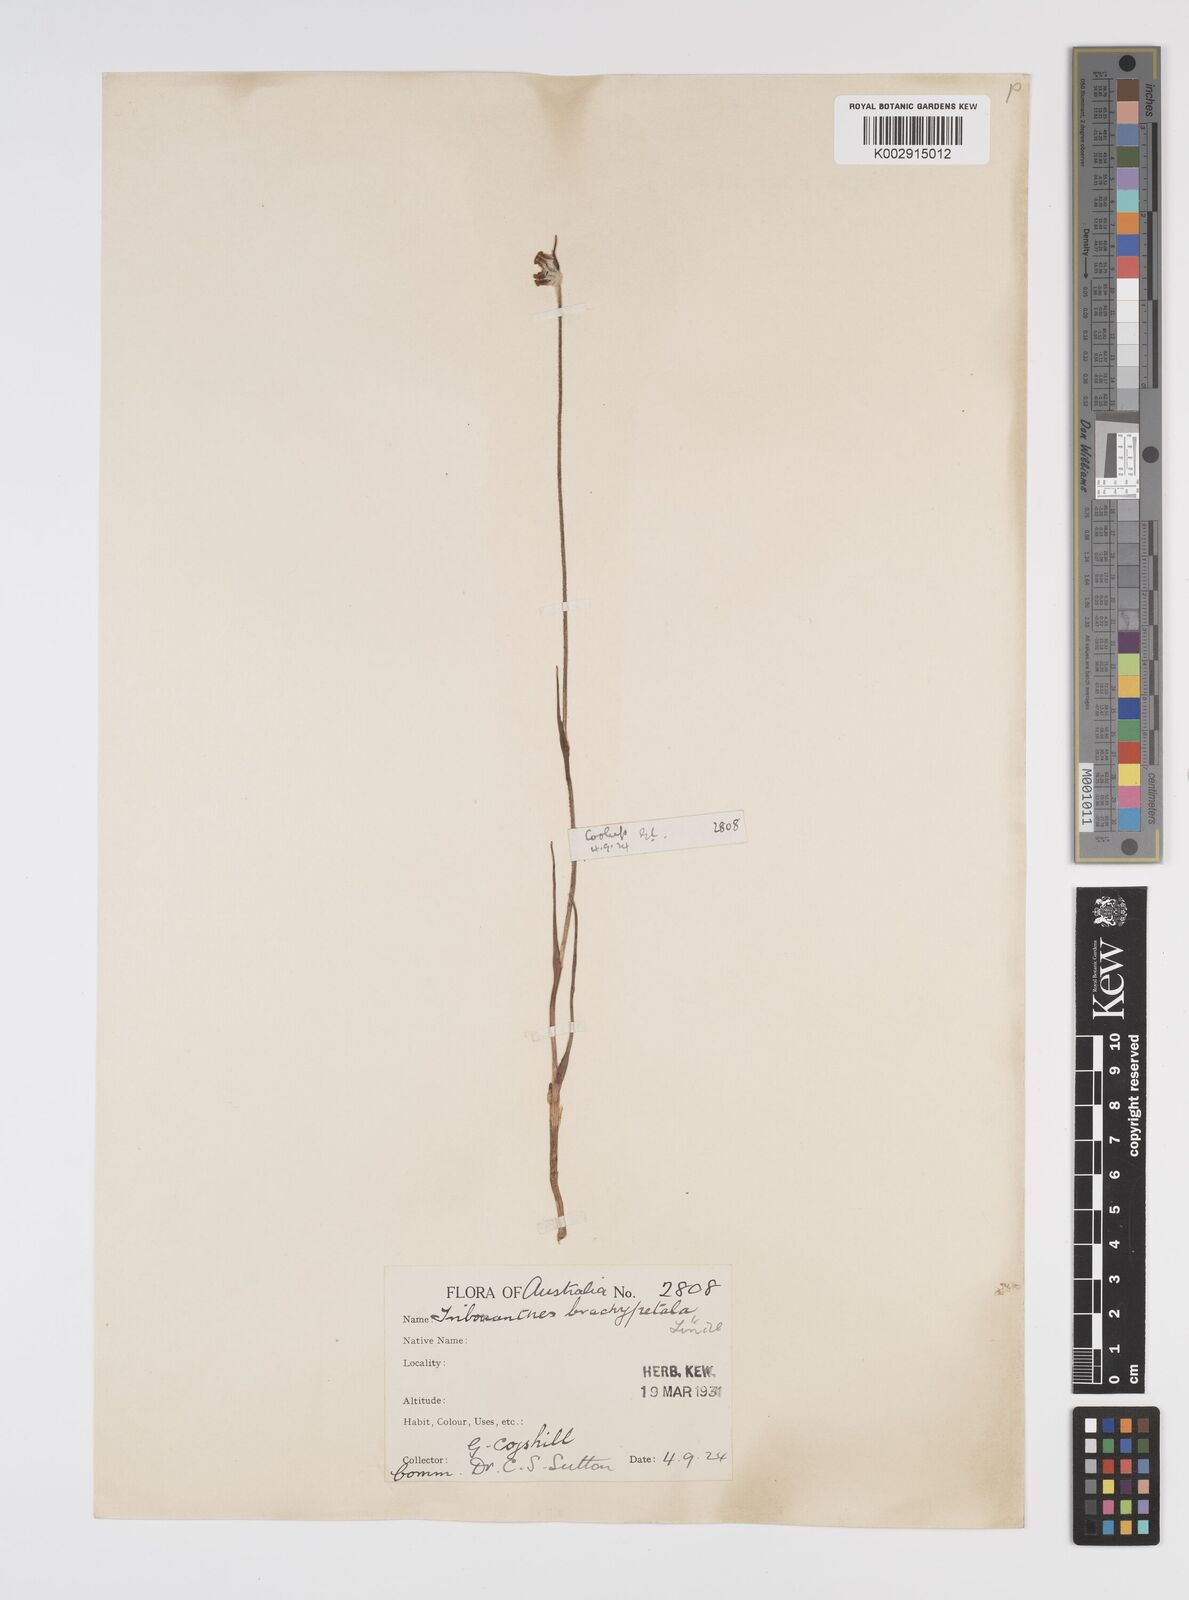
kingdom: Plantae
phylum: Tracheophyta
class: Liliopsida
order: Commelinales
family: Haemodoraceae
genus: Tribonanthes
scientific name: Tribonanthes brachypetala
